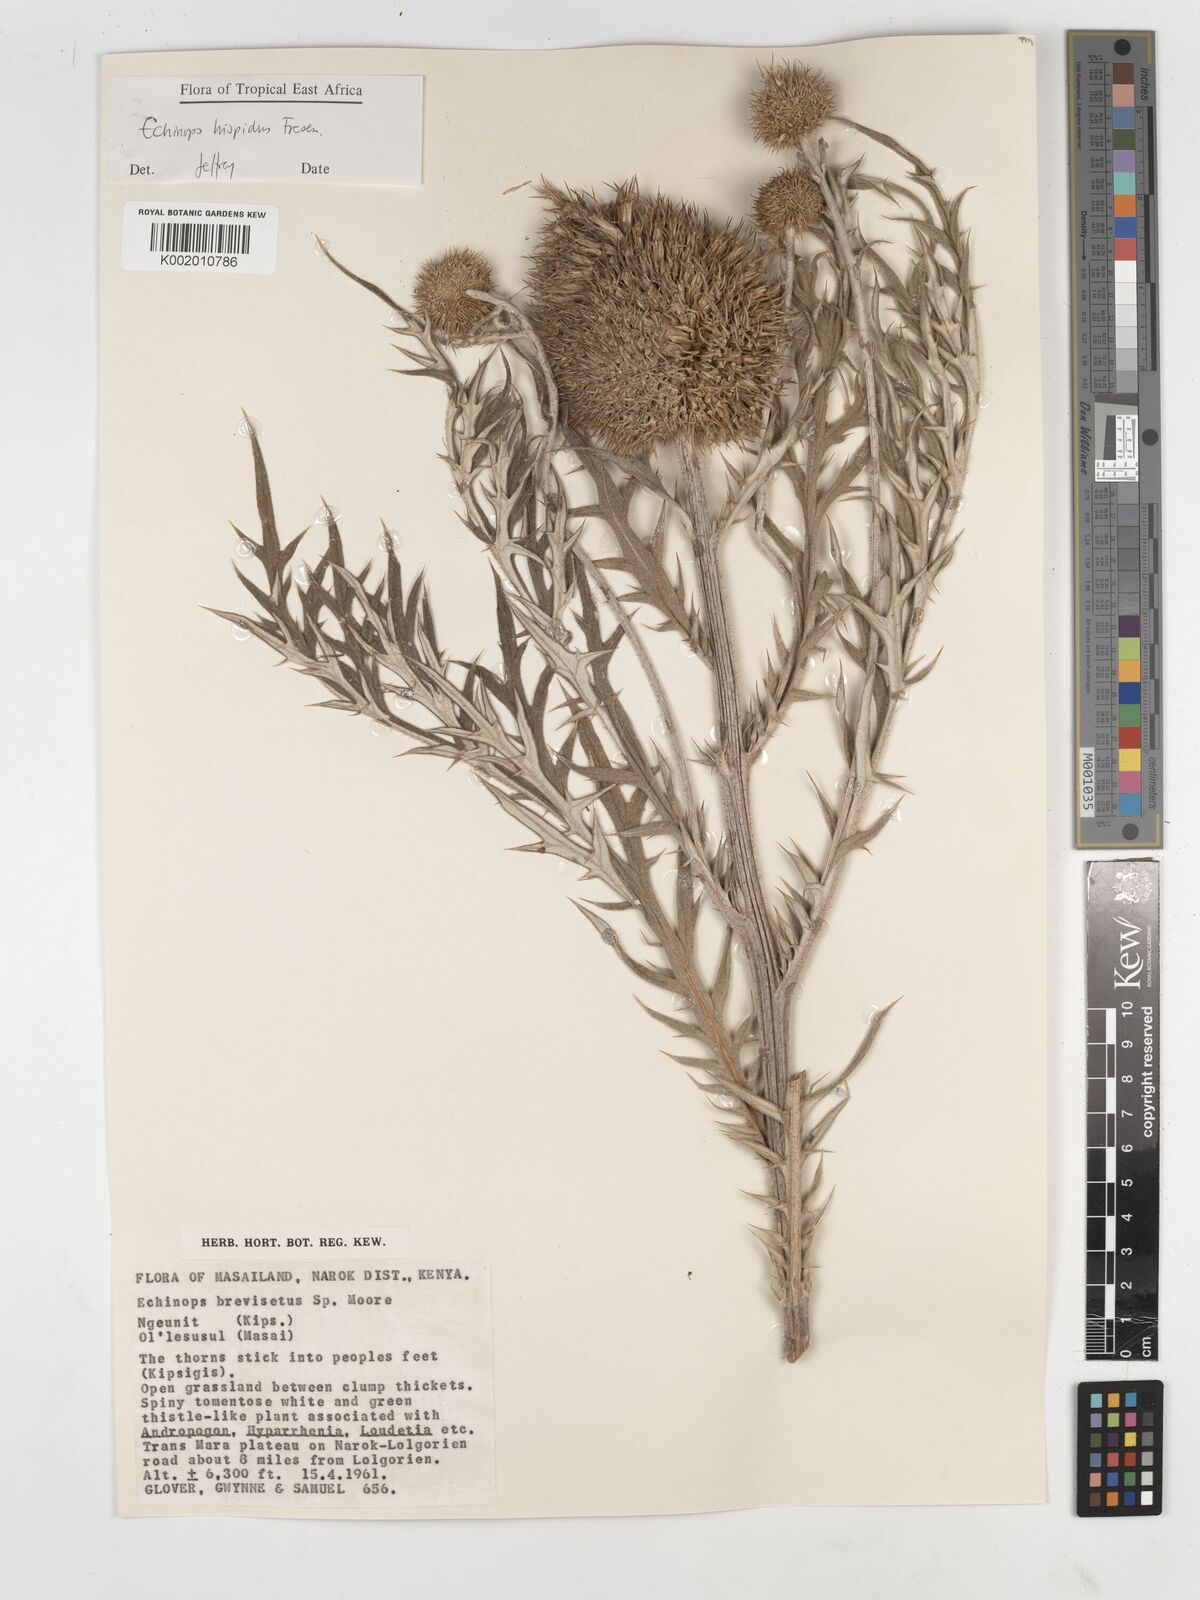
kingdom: Plantae
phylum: Tracheophyta
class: Magnoliopsida
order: Asterales
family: Asteraceae
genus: Echinops
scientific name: Echinops hispidus
